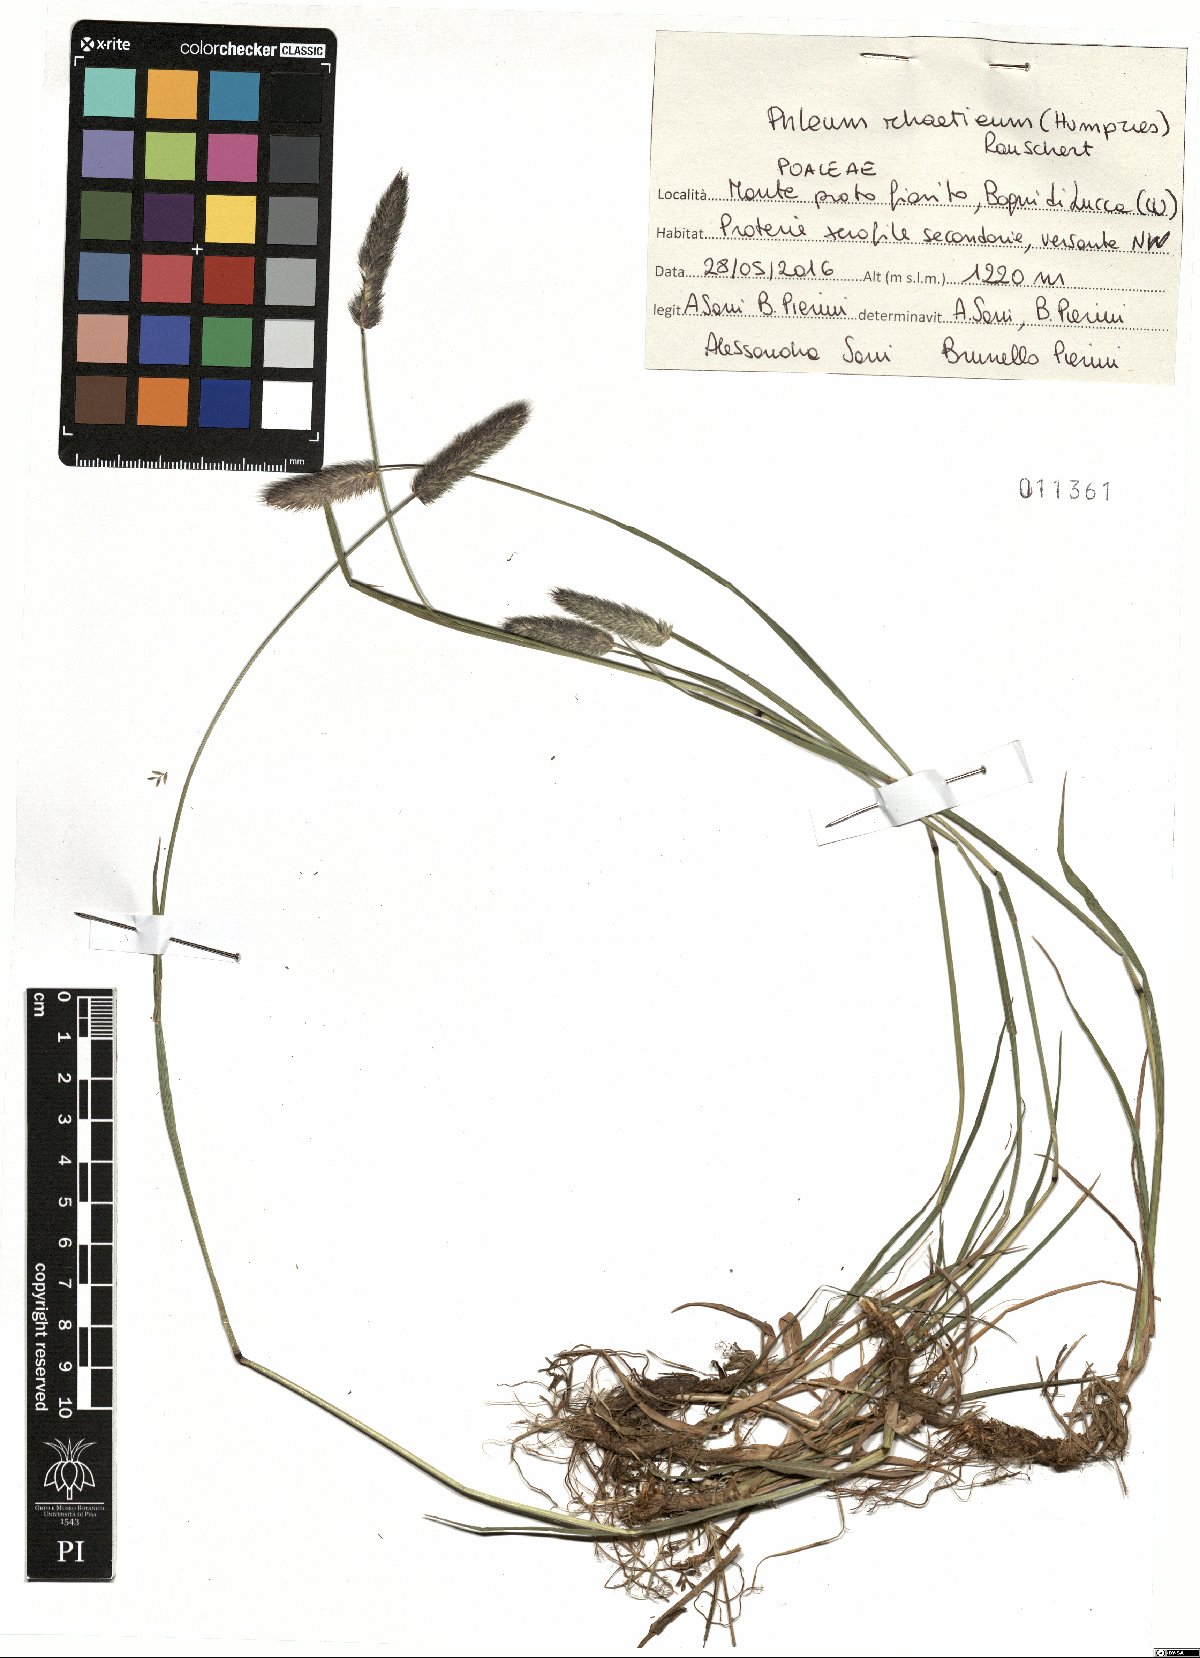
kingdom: Plantae
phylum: Tracheophyta
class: Liliopsida
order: Poales
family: Poaceae
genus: Phleum
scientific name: Phleum alpinum
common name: Alpine cat's-tail
